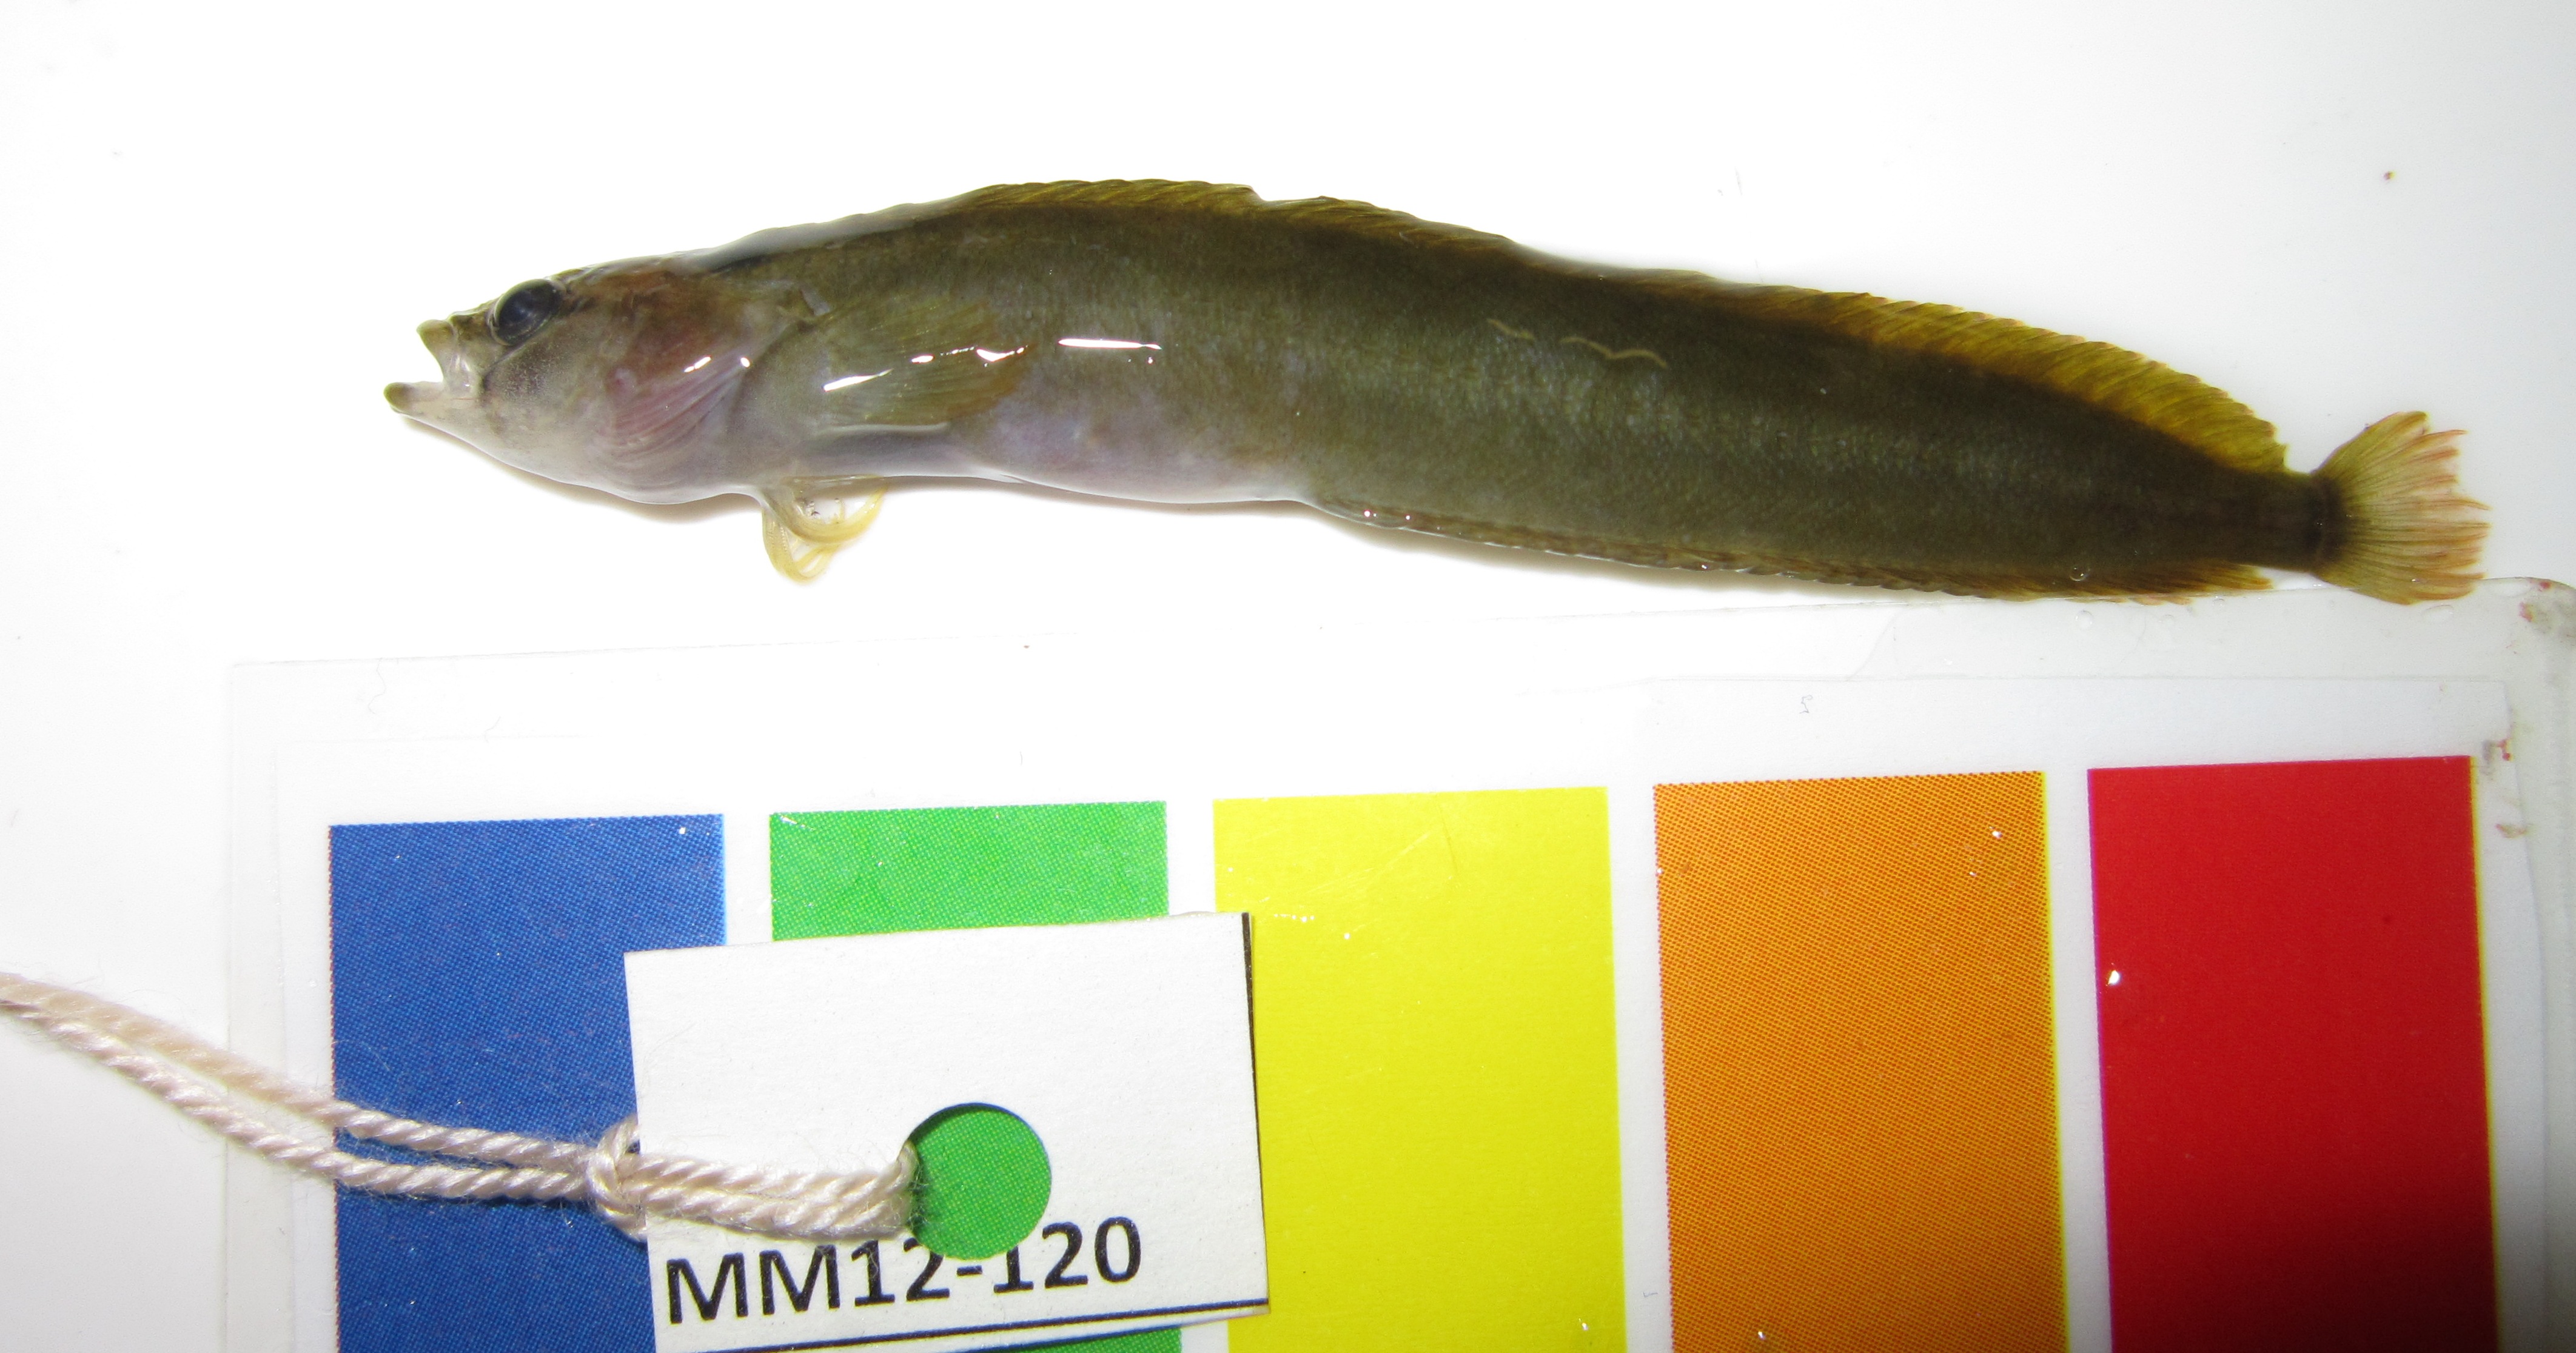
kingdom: Animalia
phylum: Chordata
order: Perciformes
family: Clinidae
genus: Muraenoclinus
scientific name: Muraenoclinus dorsalis
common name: Nosestripe klipfish
